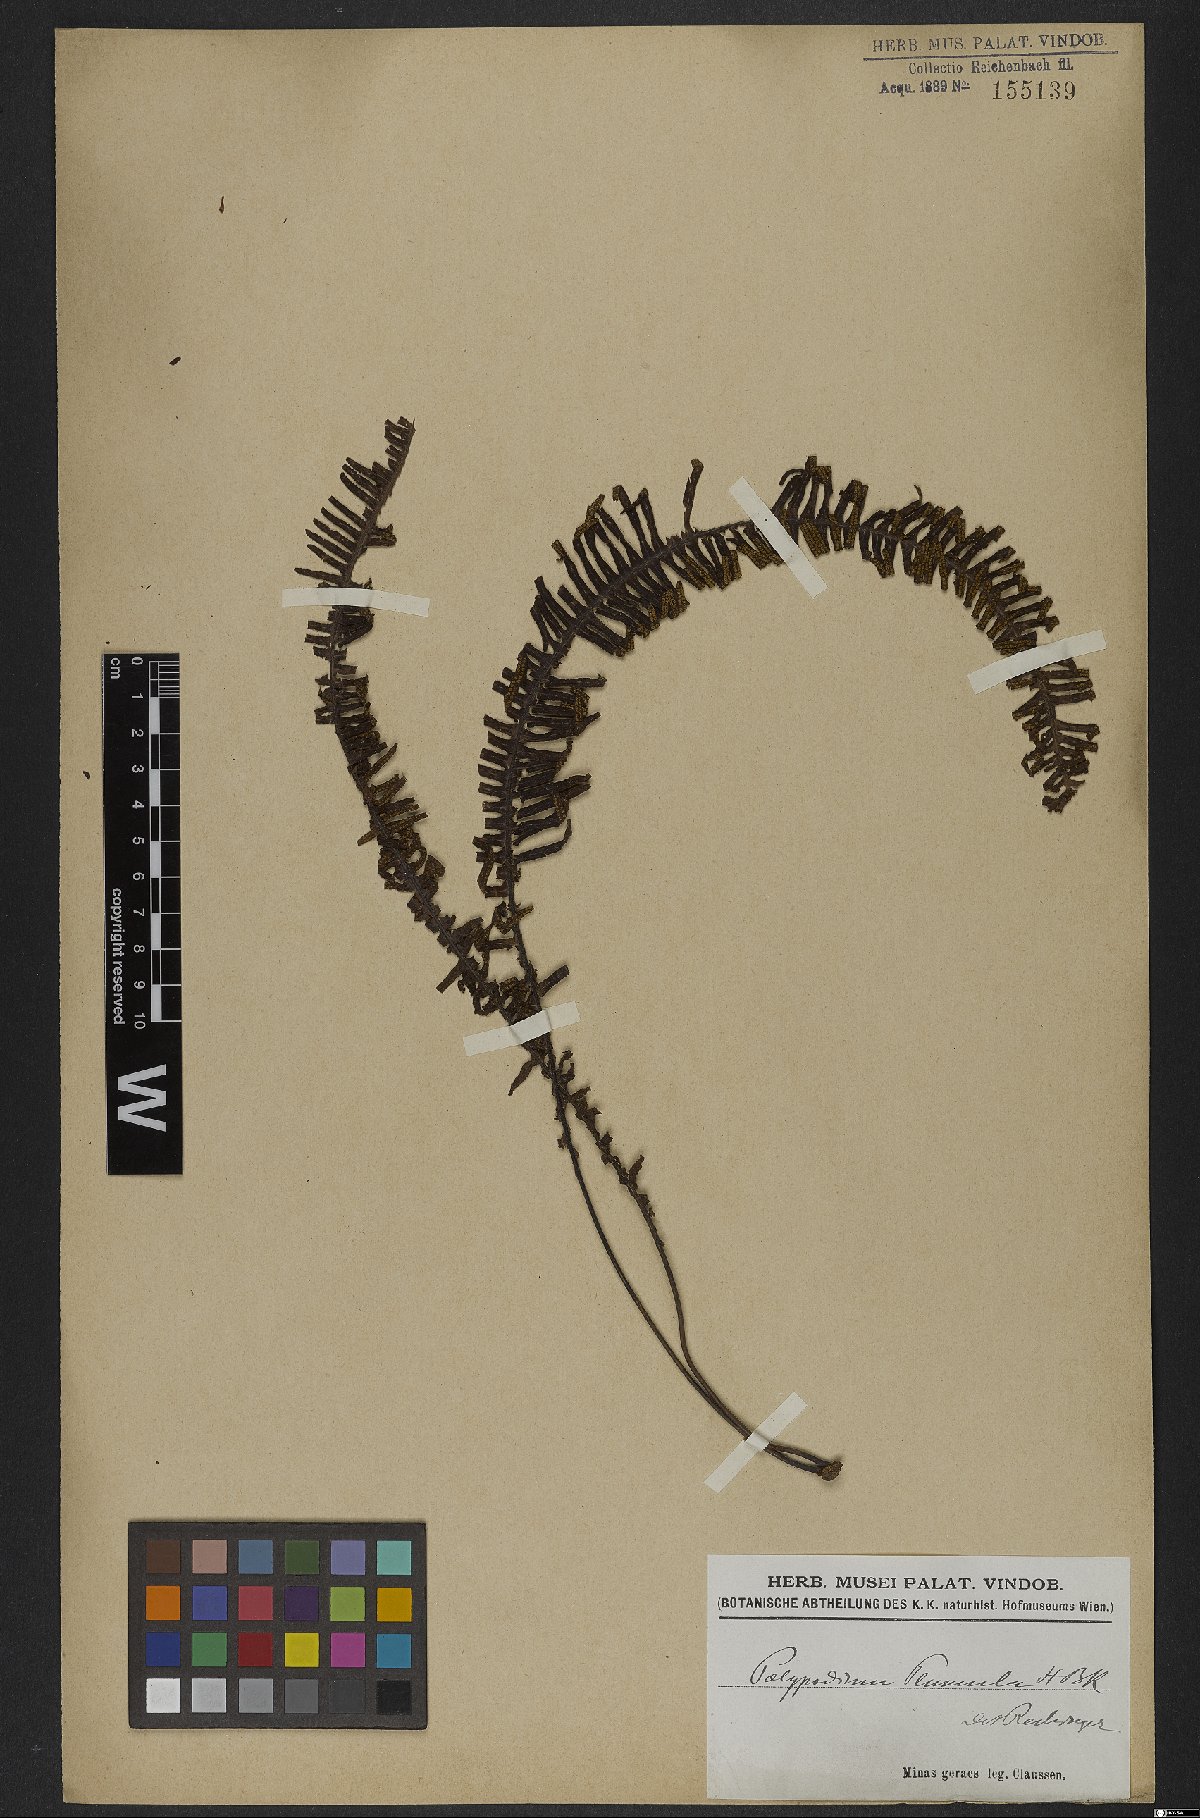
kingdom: Plantae
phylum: Tracheophyta
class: Polypodiopsida
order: Polypodiales
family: Polypodiaceae
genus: Pecluma
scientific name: Pecluma plumula
